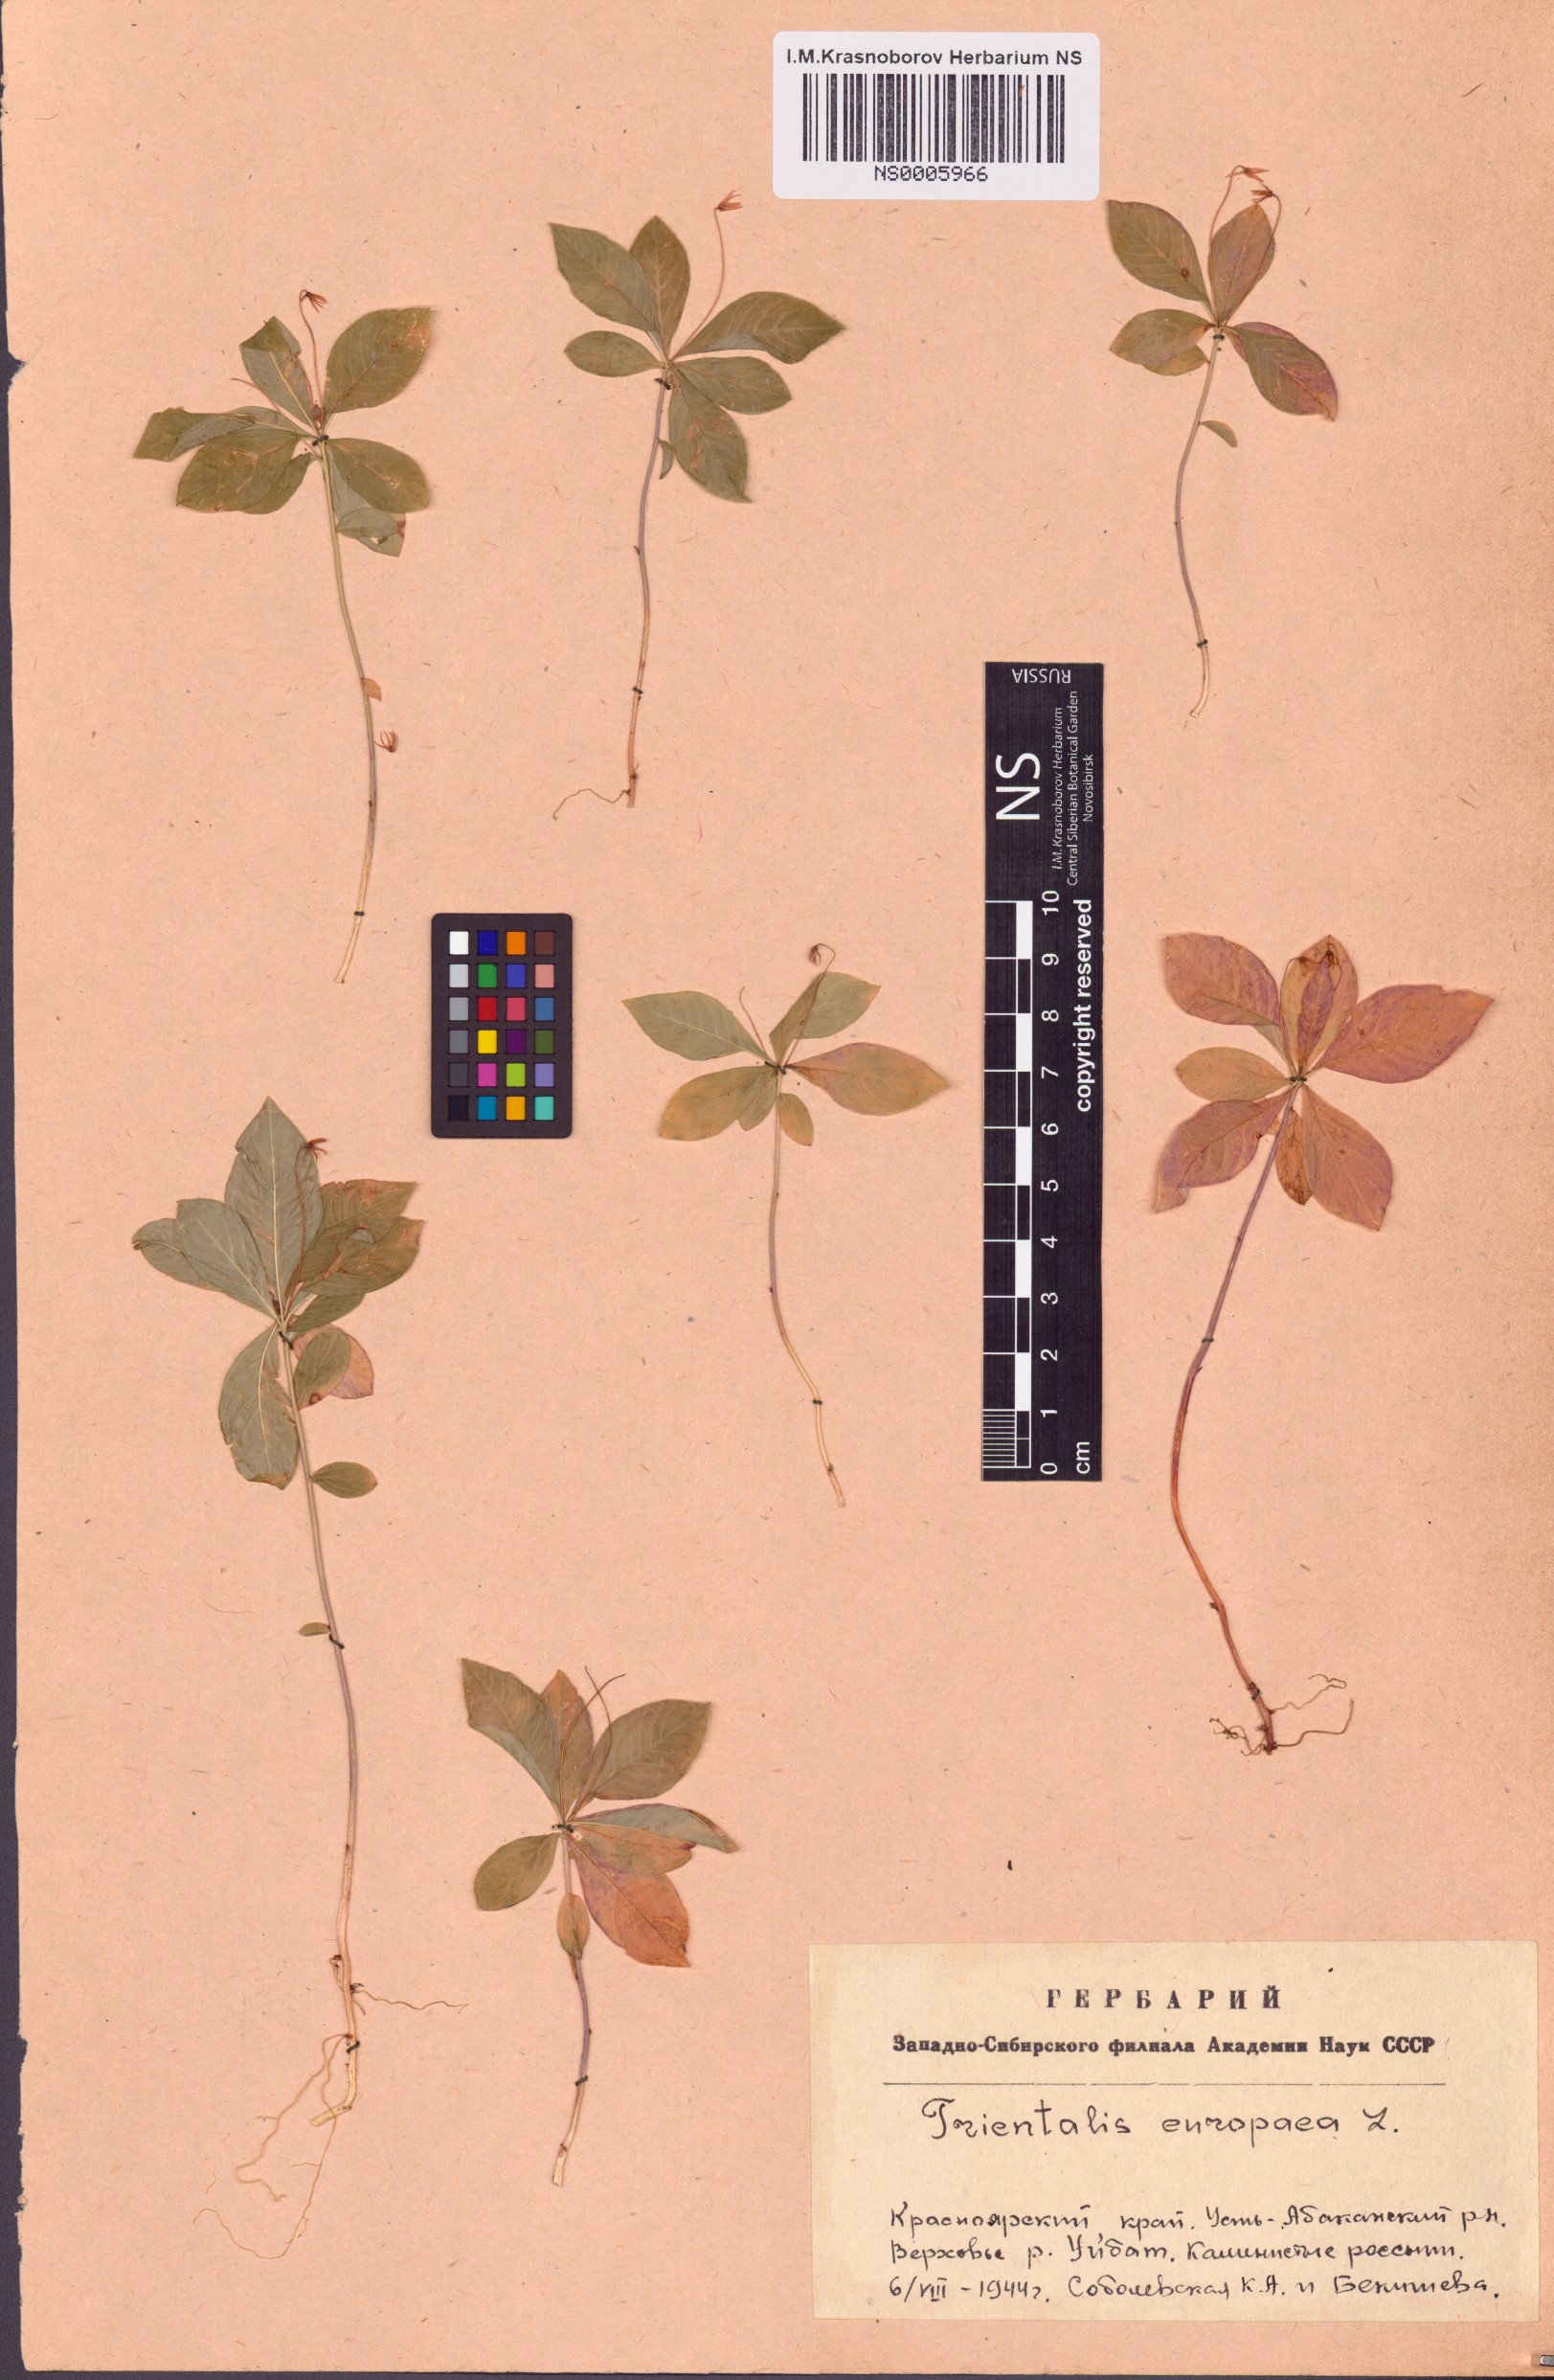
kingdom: Plantae
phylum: Tracheophyta
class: Magnoliopsida
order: Ericales
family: Primulaceae
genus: Lysimachia
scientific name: Lysimachia europaea
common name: Arctic starflower
